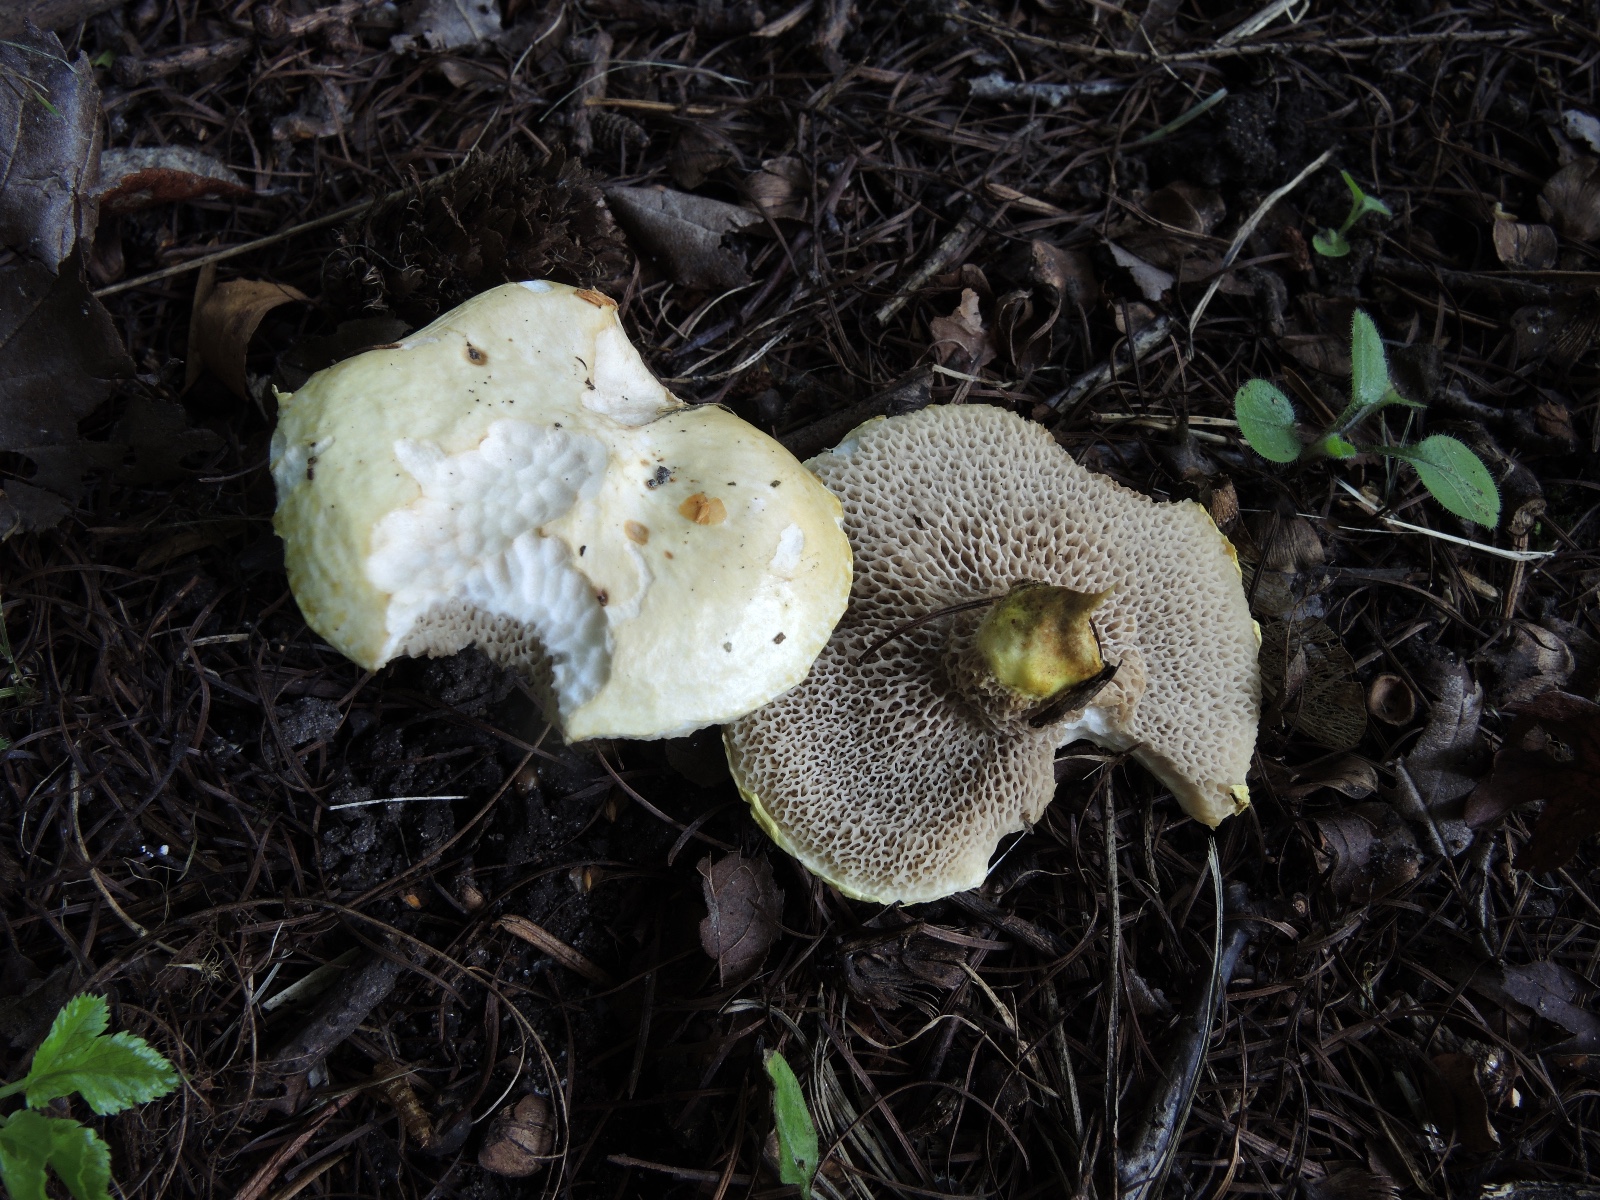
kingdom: Fungi
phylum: Basidiomycota
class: Agaricomycetes
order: Boletales
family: Suillaceae
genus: Suillus
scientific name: Suillus viscidus
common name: olivengrå slimrørhat
